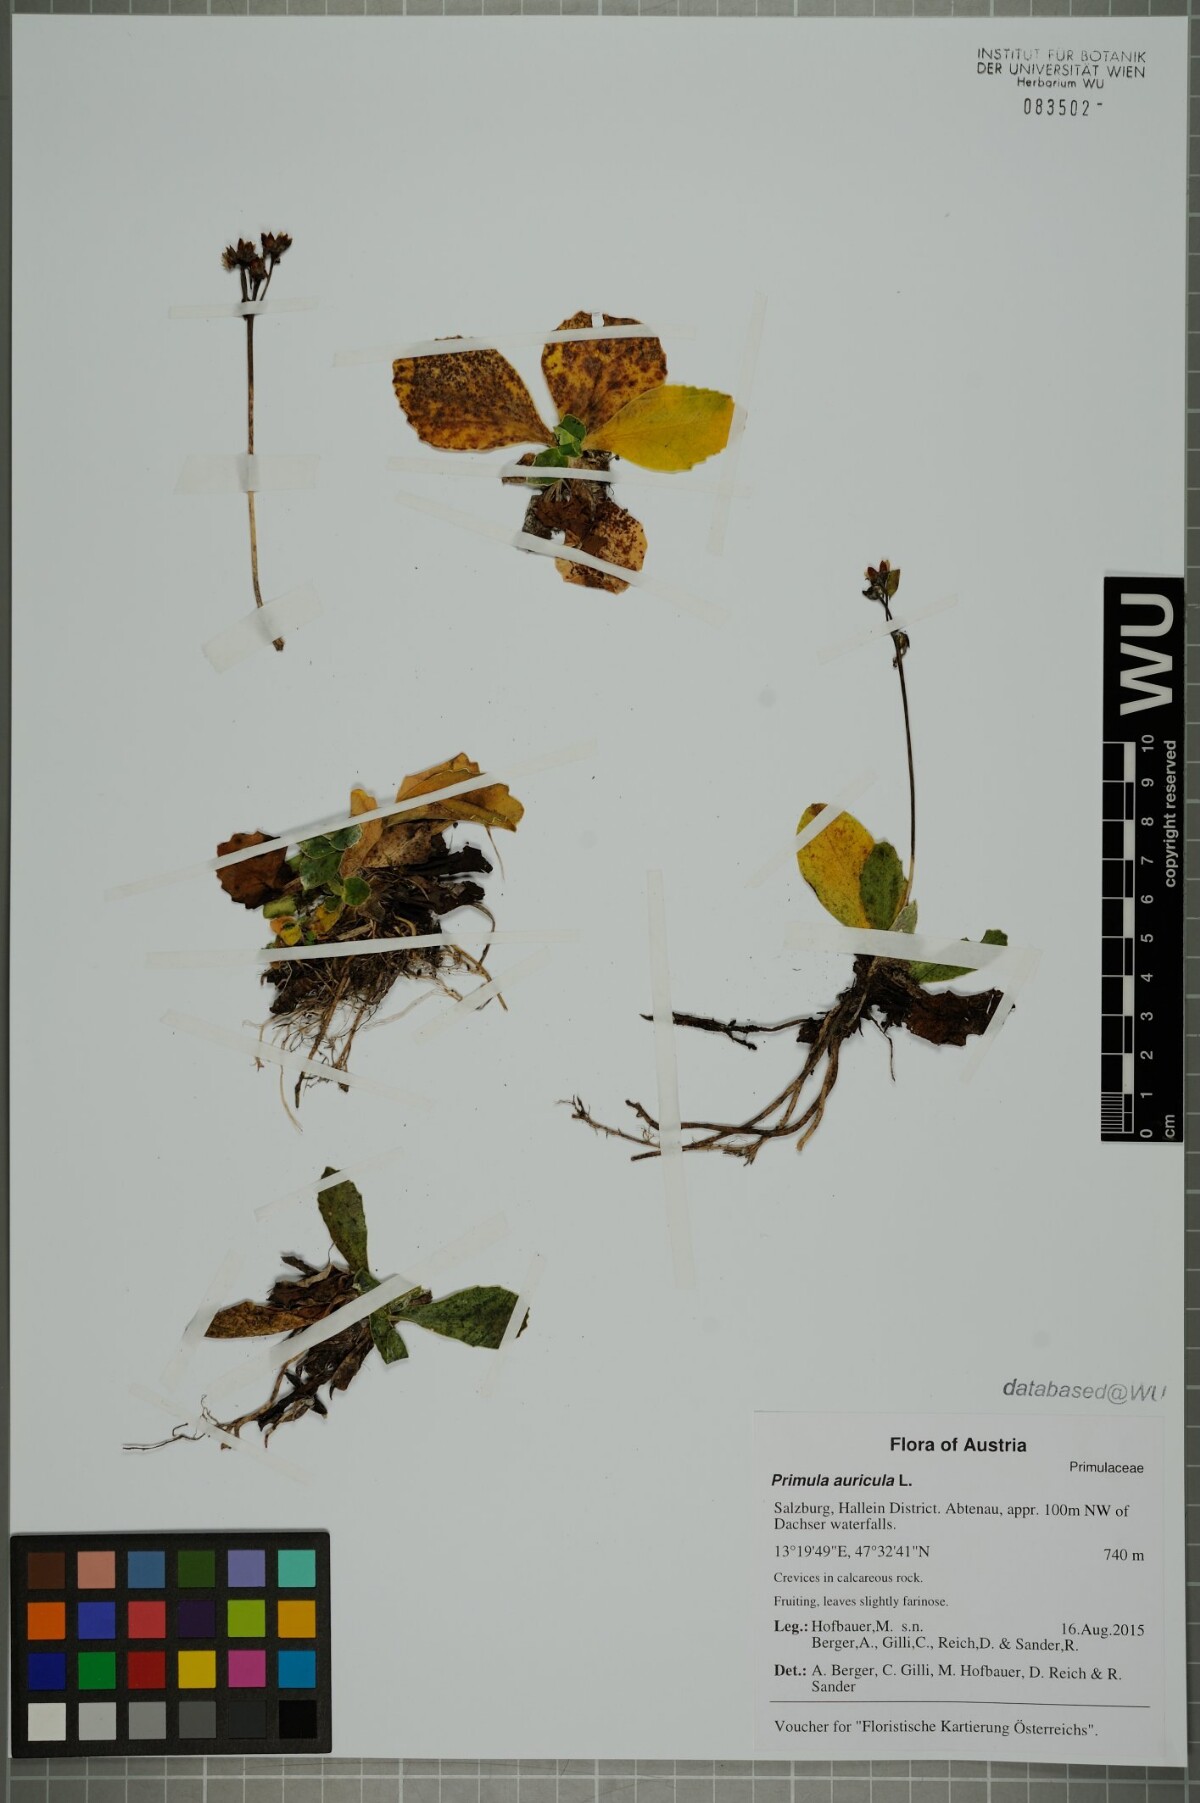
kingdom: Plantae
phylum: Tracheophyta
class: Magnoliopsida
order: Ericales
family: Primulaceae
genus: Primula
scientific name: Primula auricula
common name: Auricula
